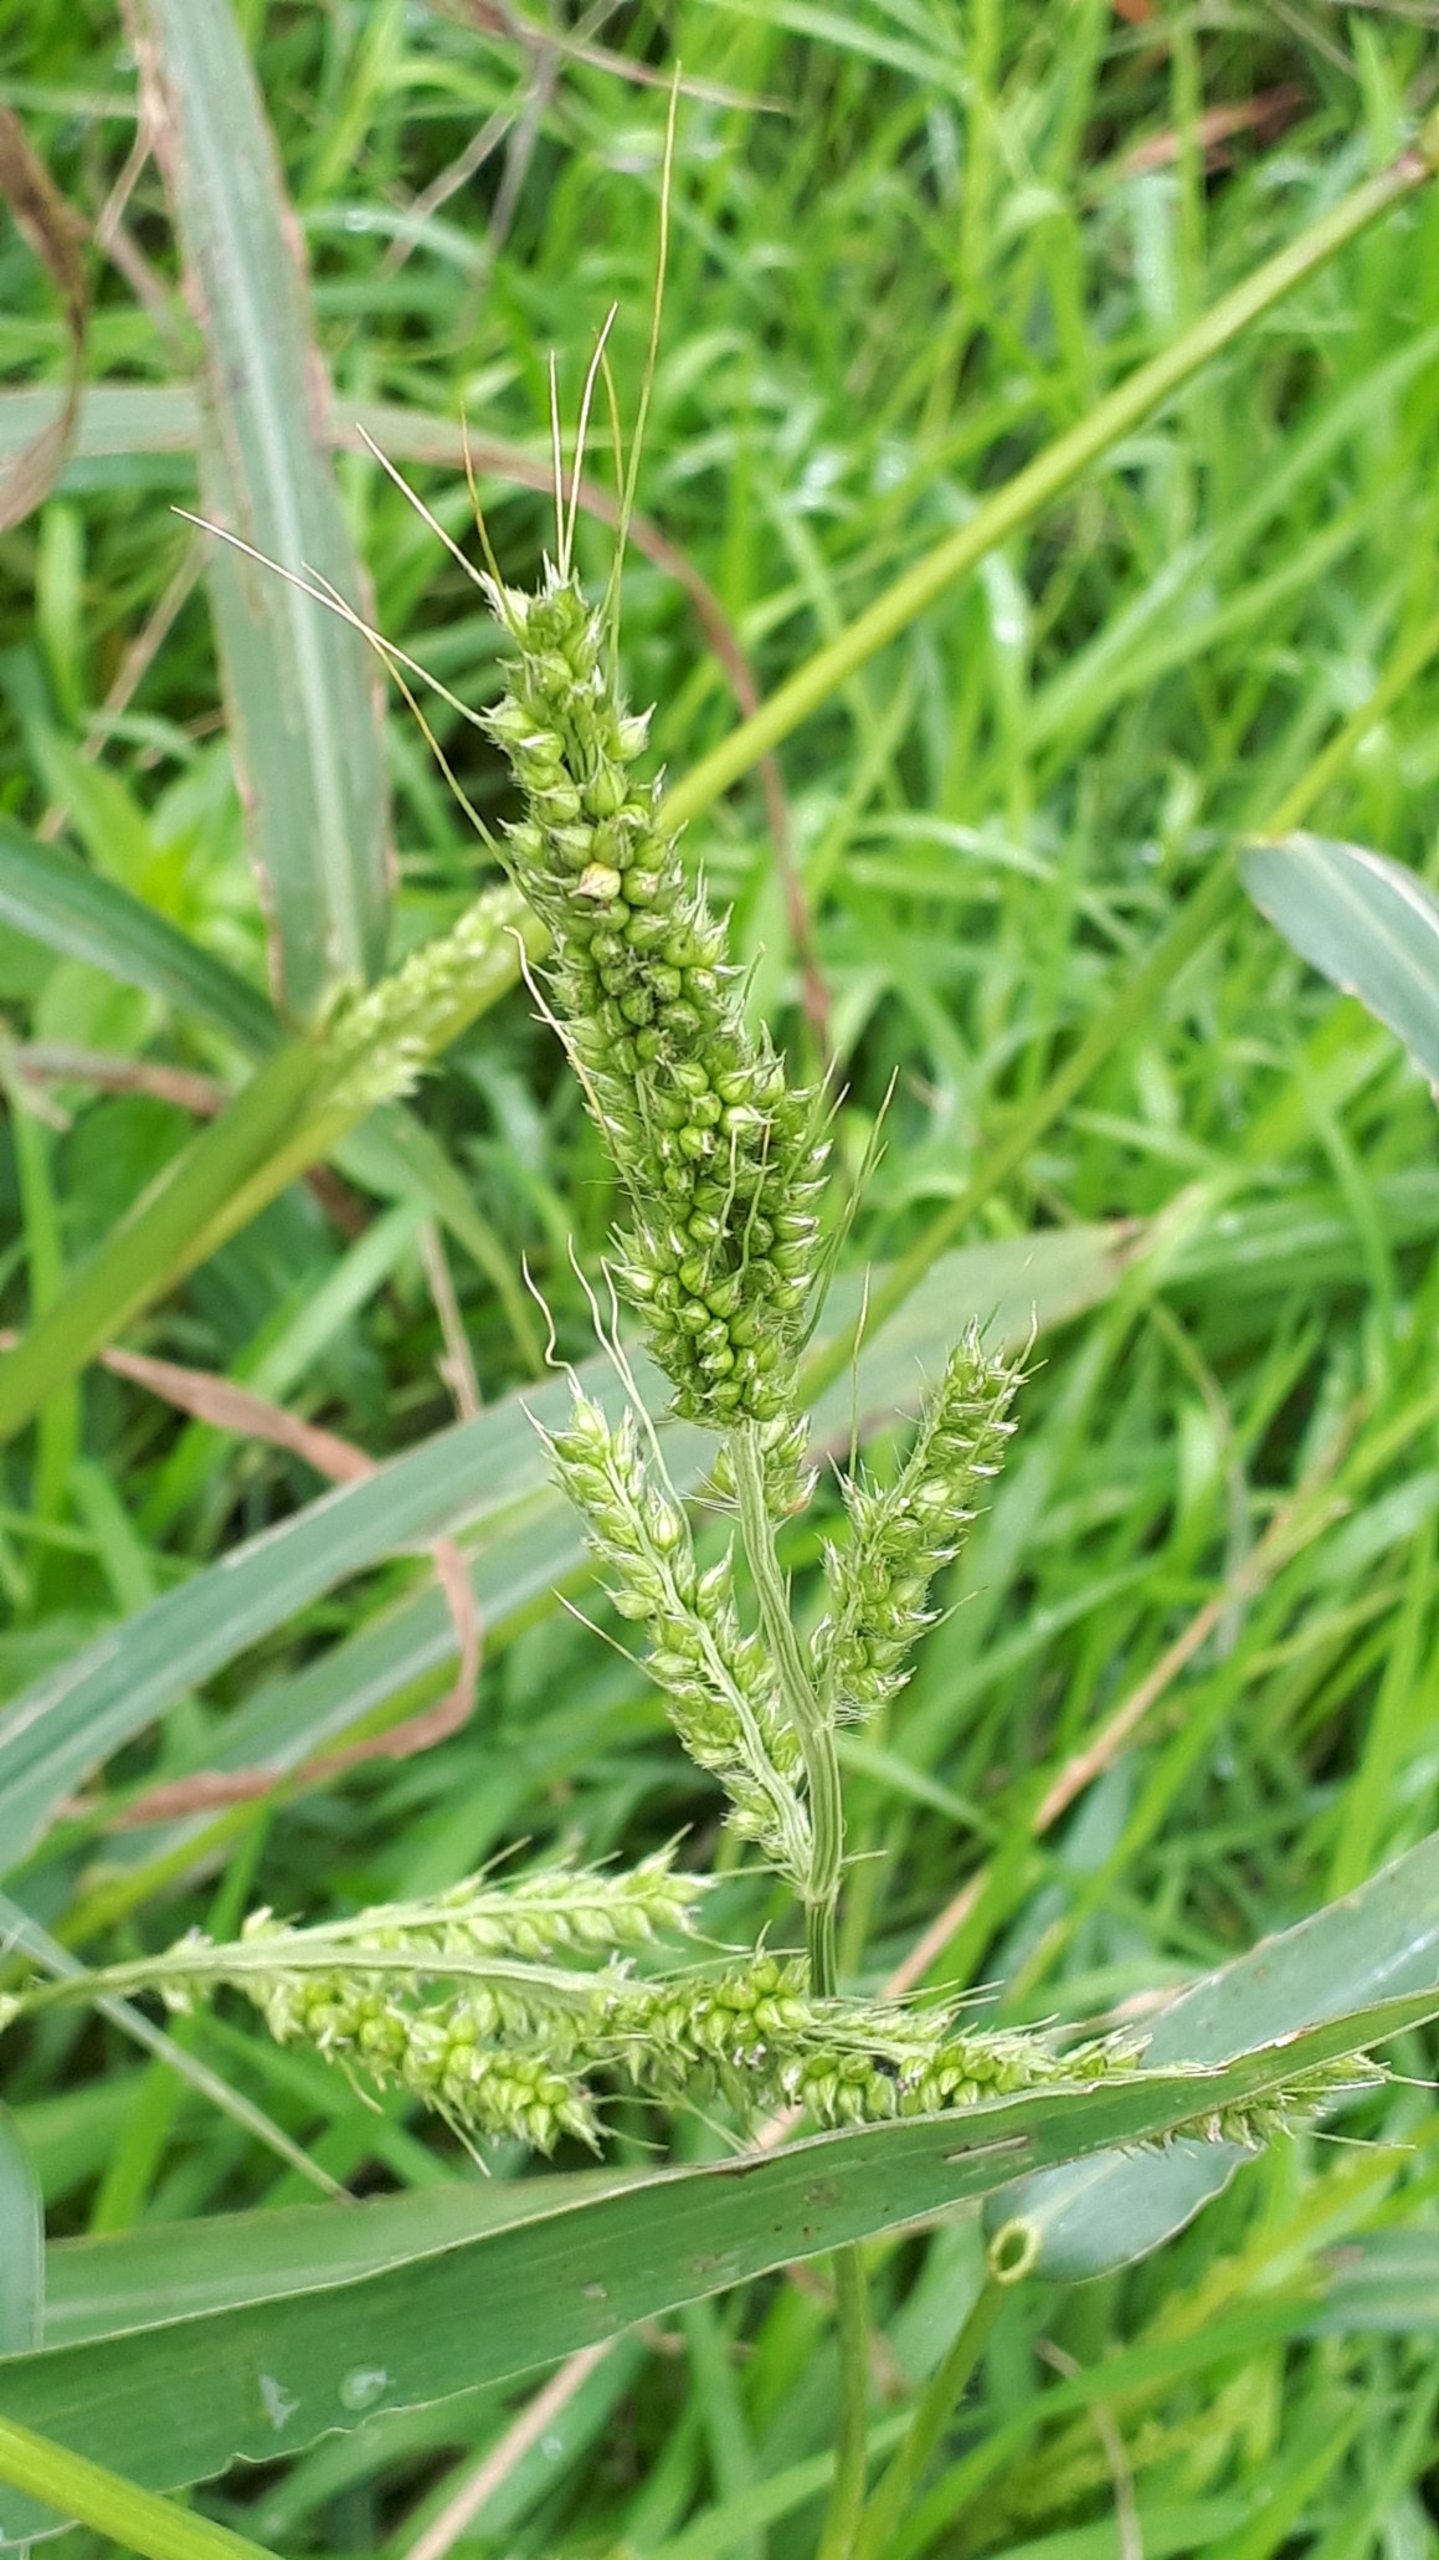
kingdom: Plantae
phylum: Tracheophyta
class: Liliopsida
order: Poales
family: Poaceae
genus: Echinochloa
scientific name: Echinochloa crus-galli
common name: Almindelig hanespore
